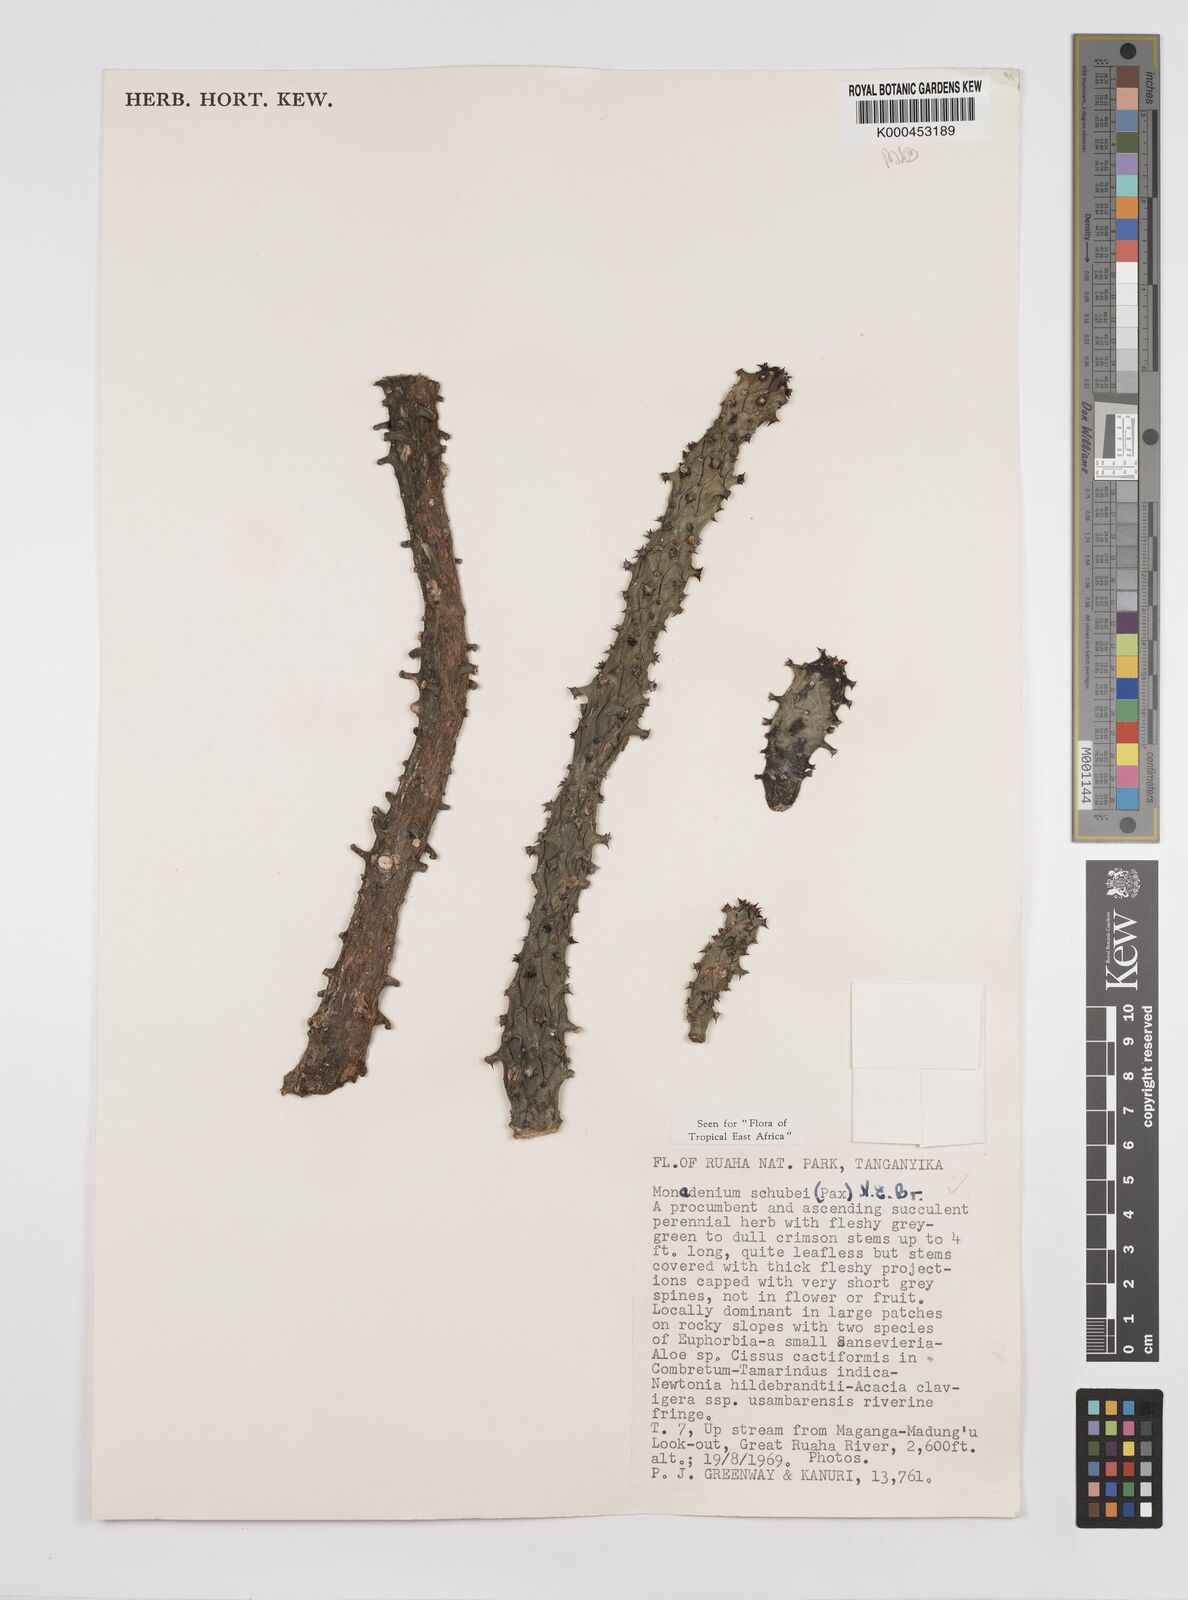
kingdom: Plantae
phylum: Tracheophyta
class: Magnoliopsida
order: Malpighiales
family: Euphorbiaceae
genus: Euphorbia
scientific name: Euphorbia schubei
